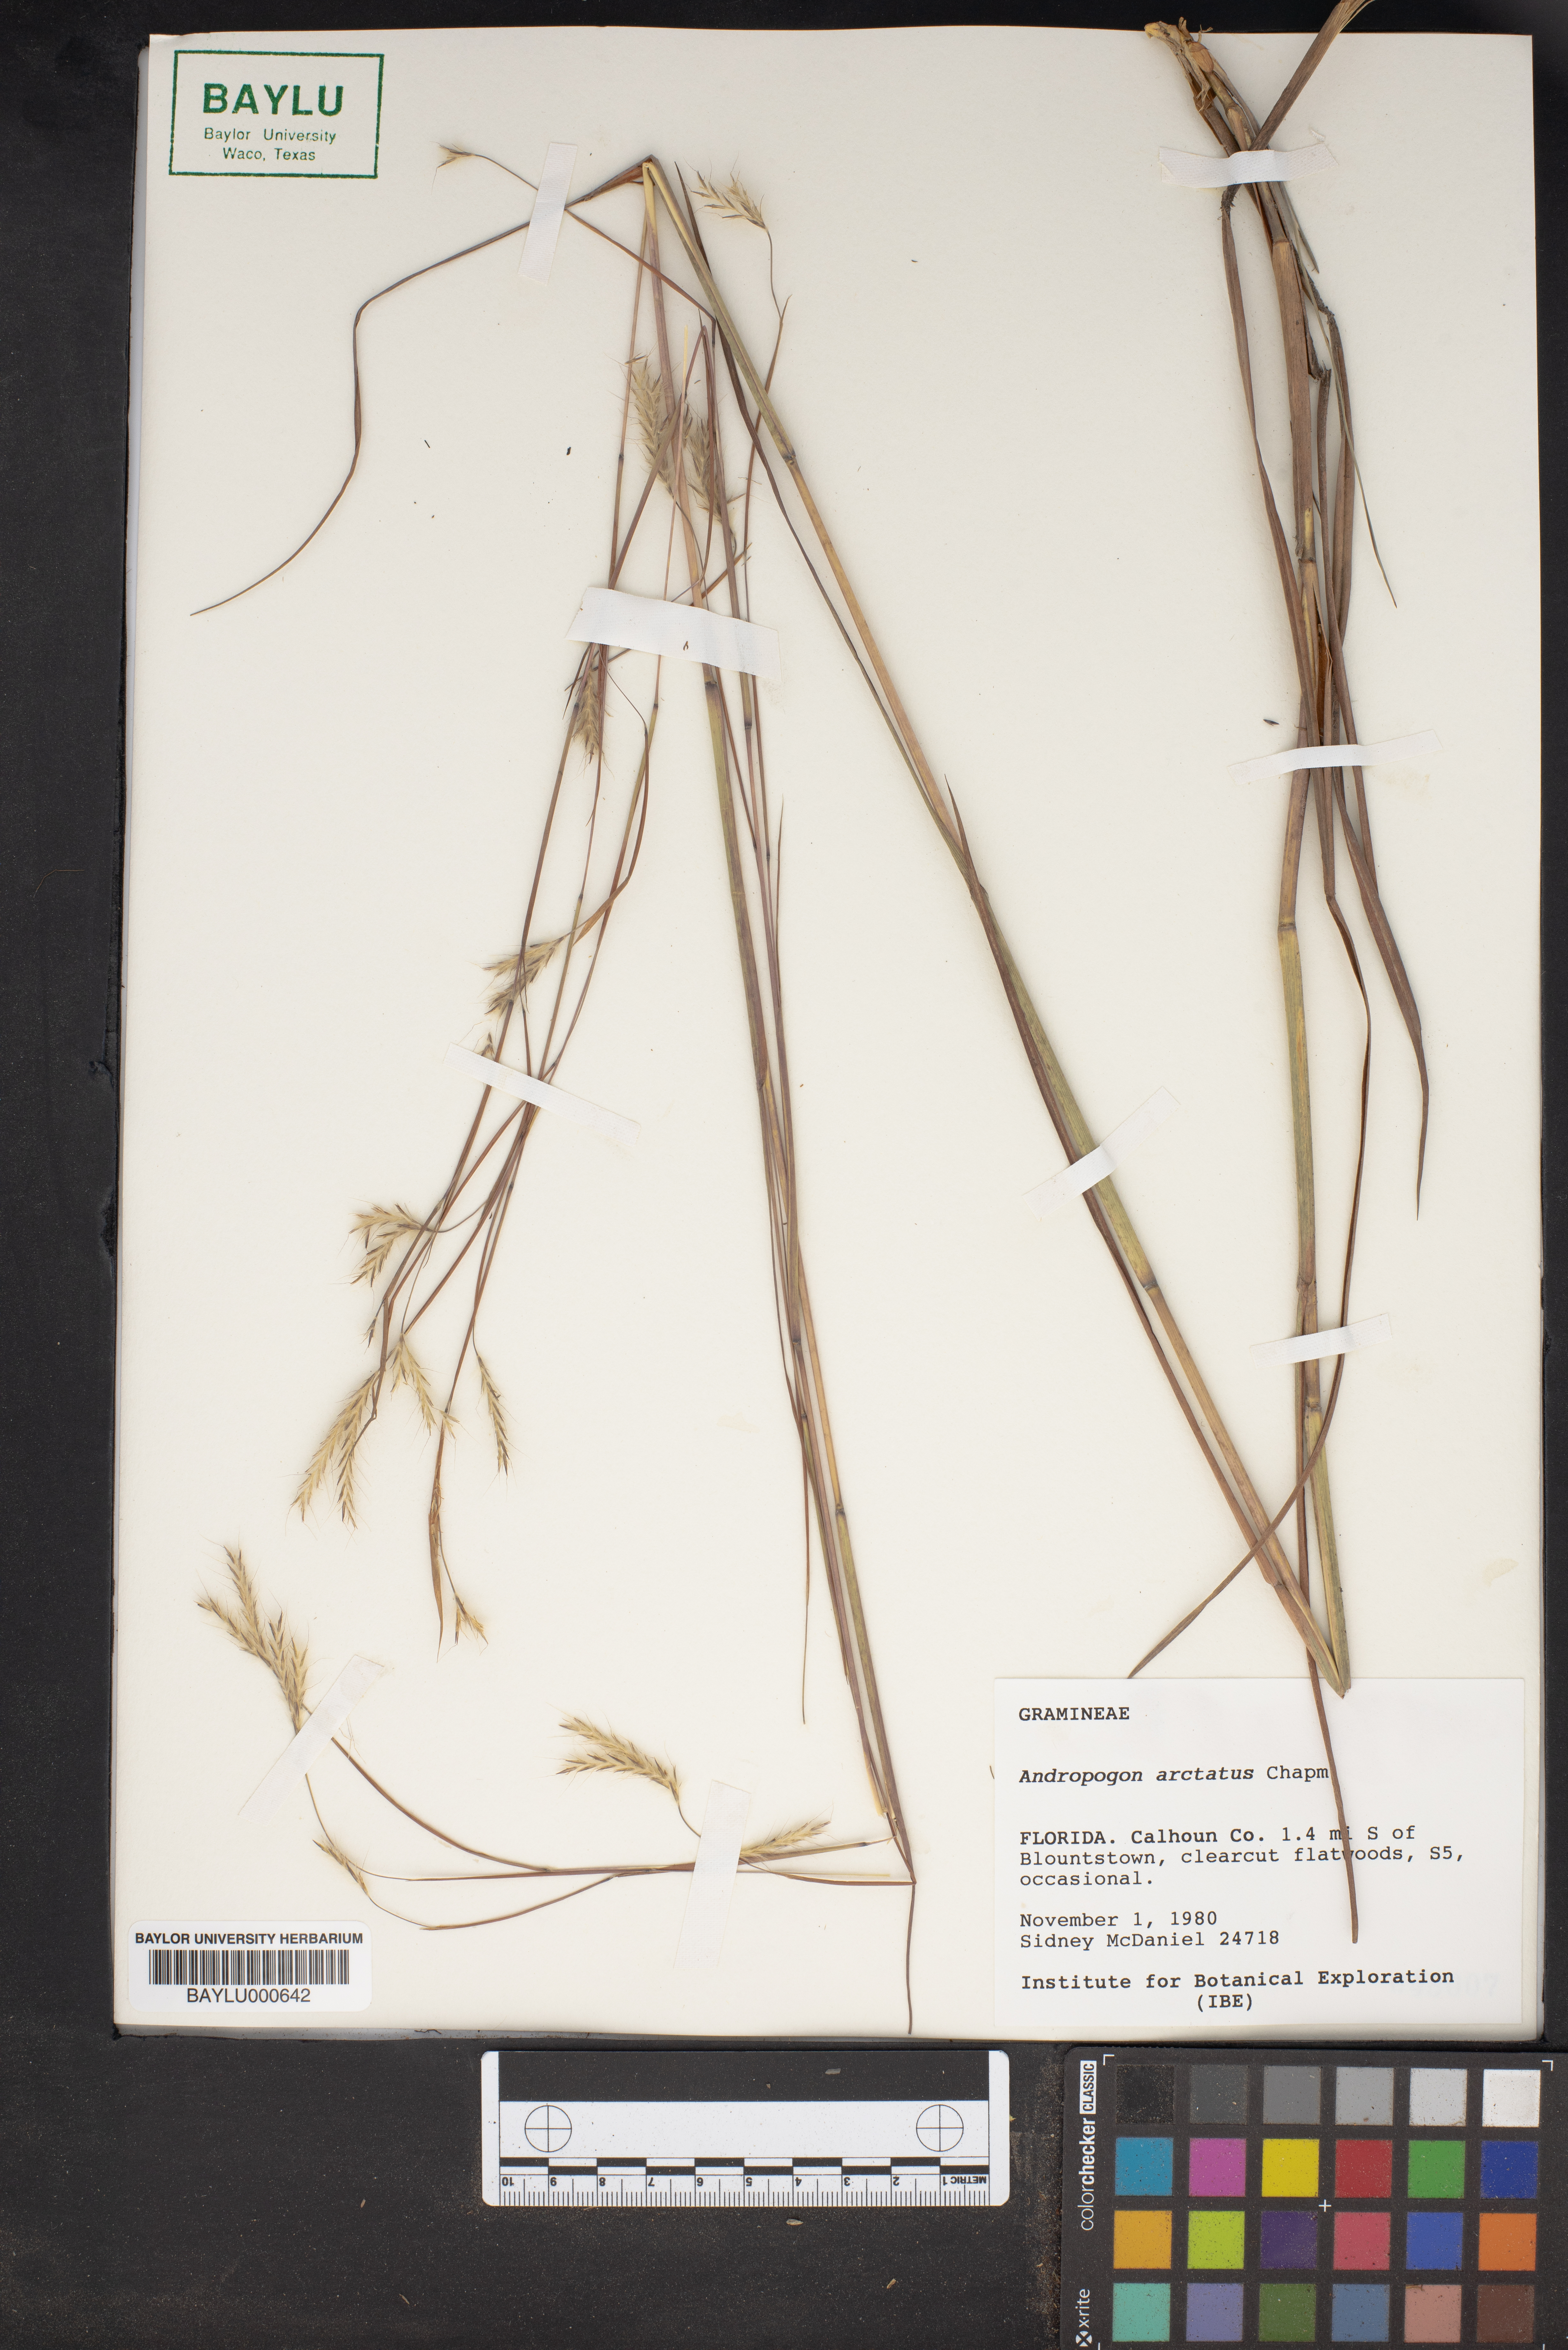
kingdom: Plantae
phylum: Tracheophyta
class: Liliopsida
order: Poales
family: Poaceae
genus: Andropogon
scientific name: Andropogon arctatus
